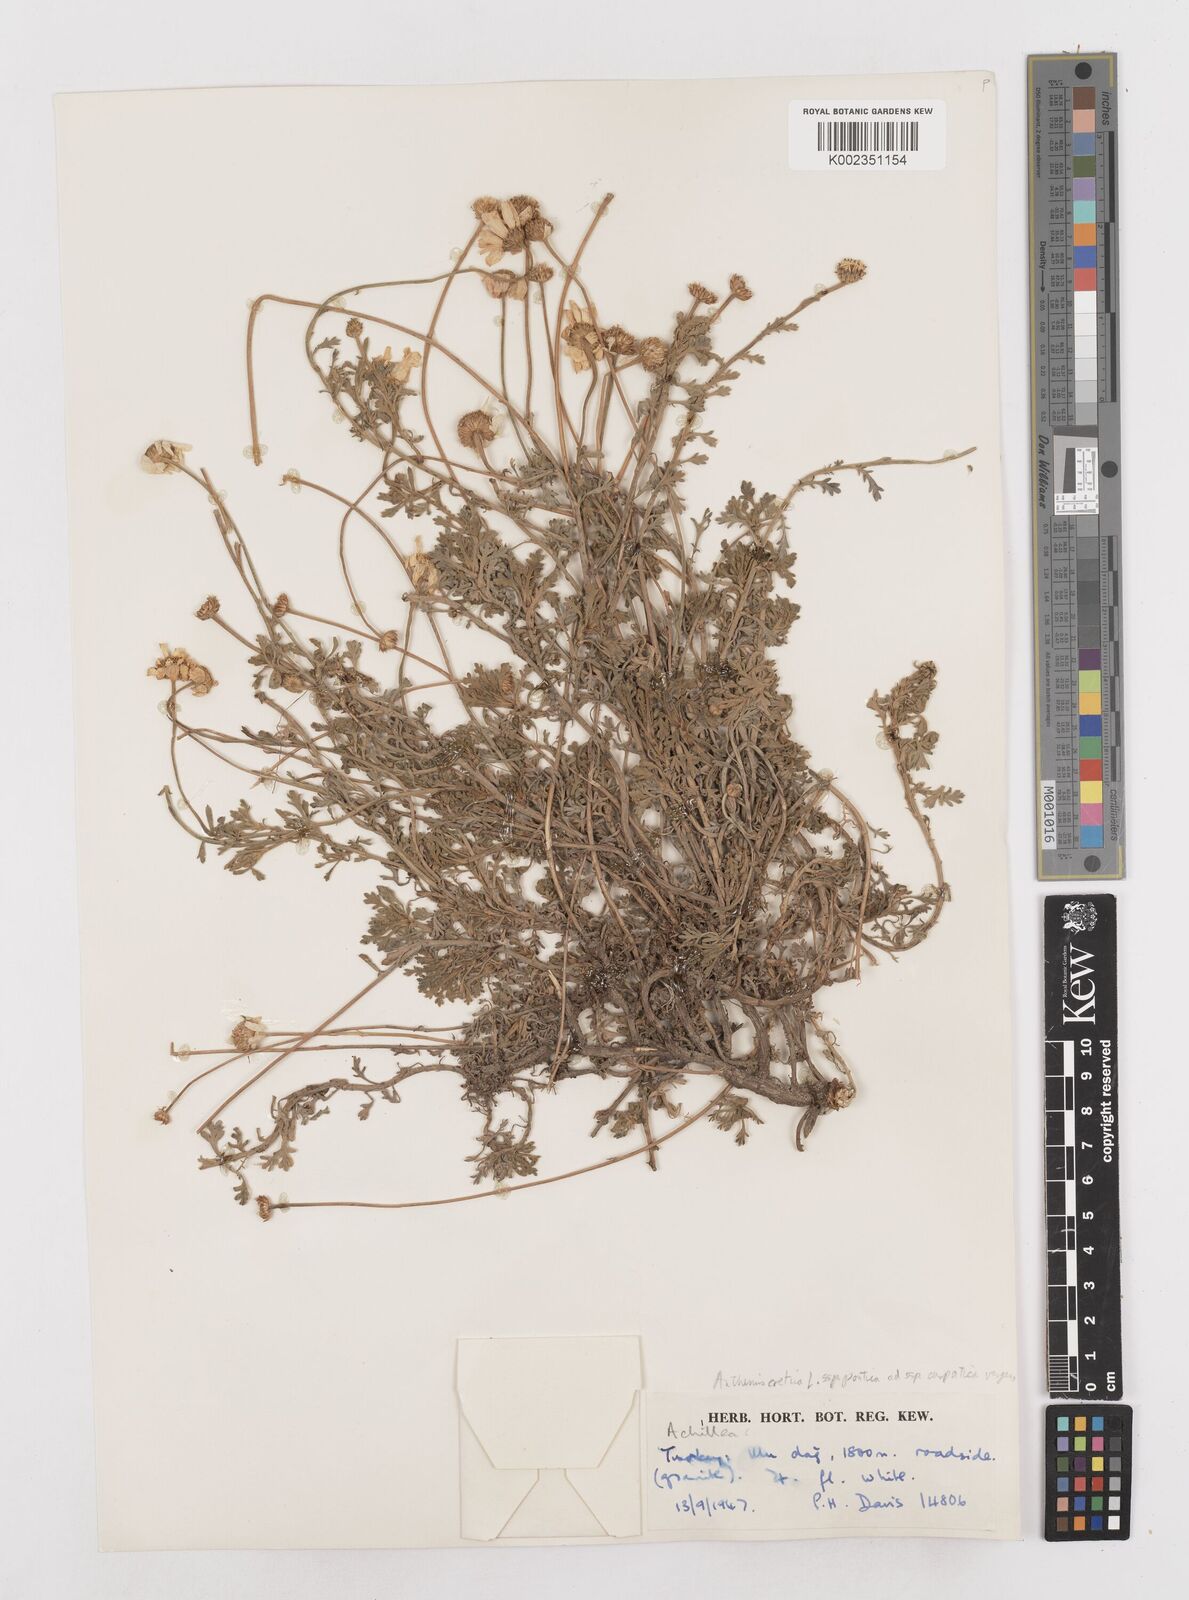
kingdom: Plantae
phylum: Tracheophyta
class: Magnoliopsida
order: Asterales
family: Asteraceae
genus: Anthemis
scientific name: Anthemis cretica
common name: Mountain dog-daisy
